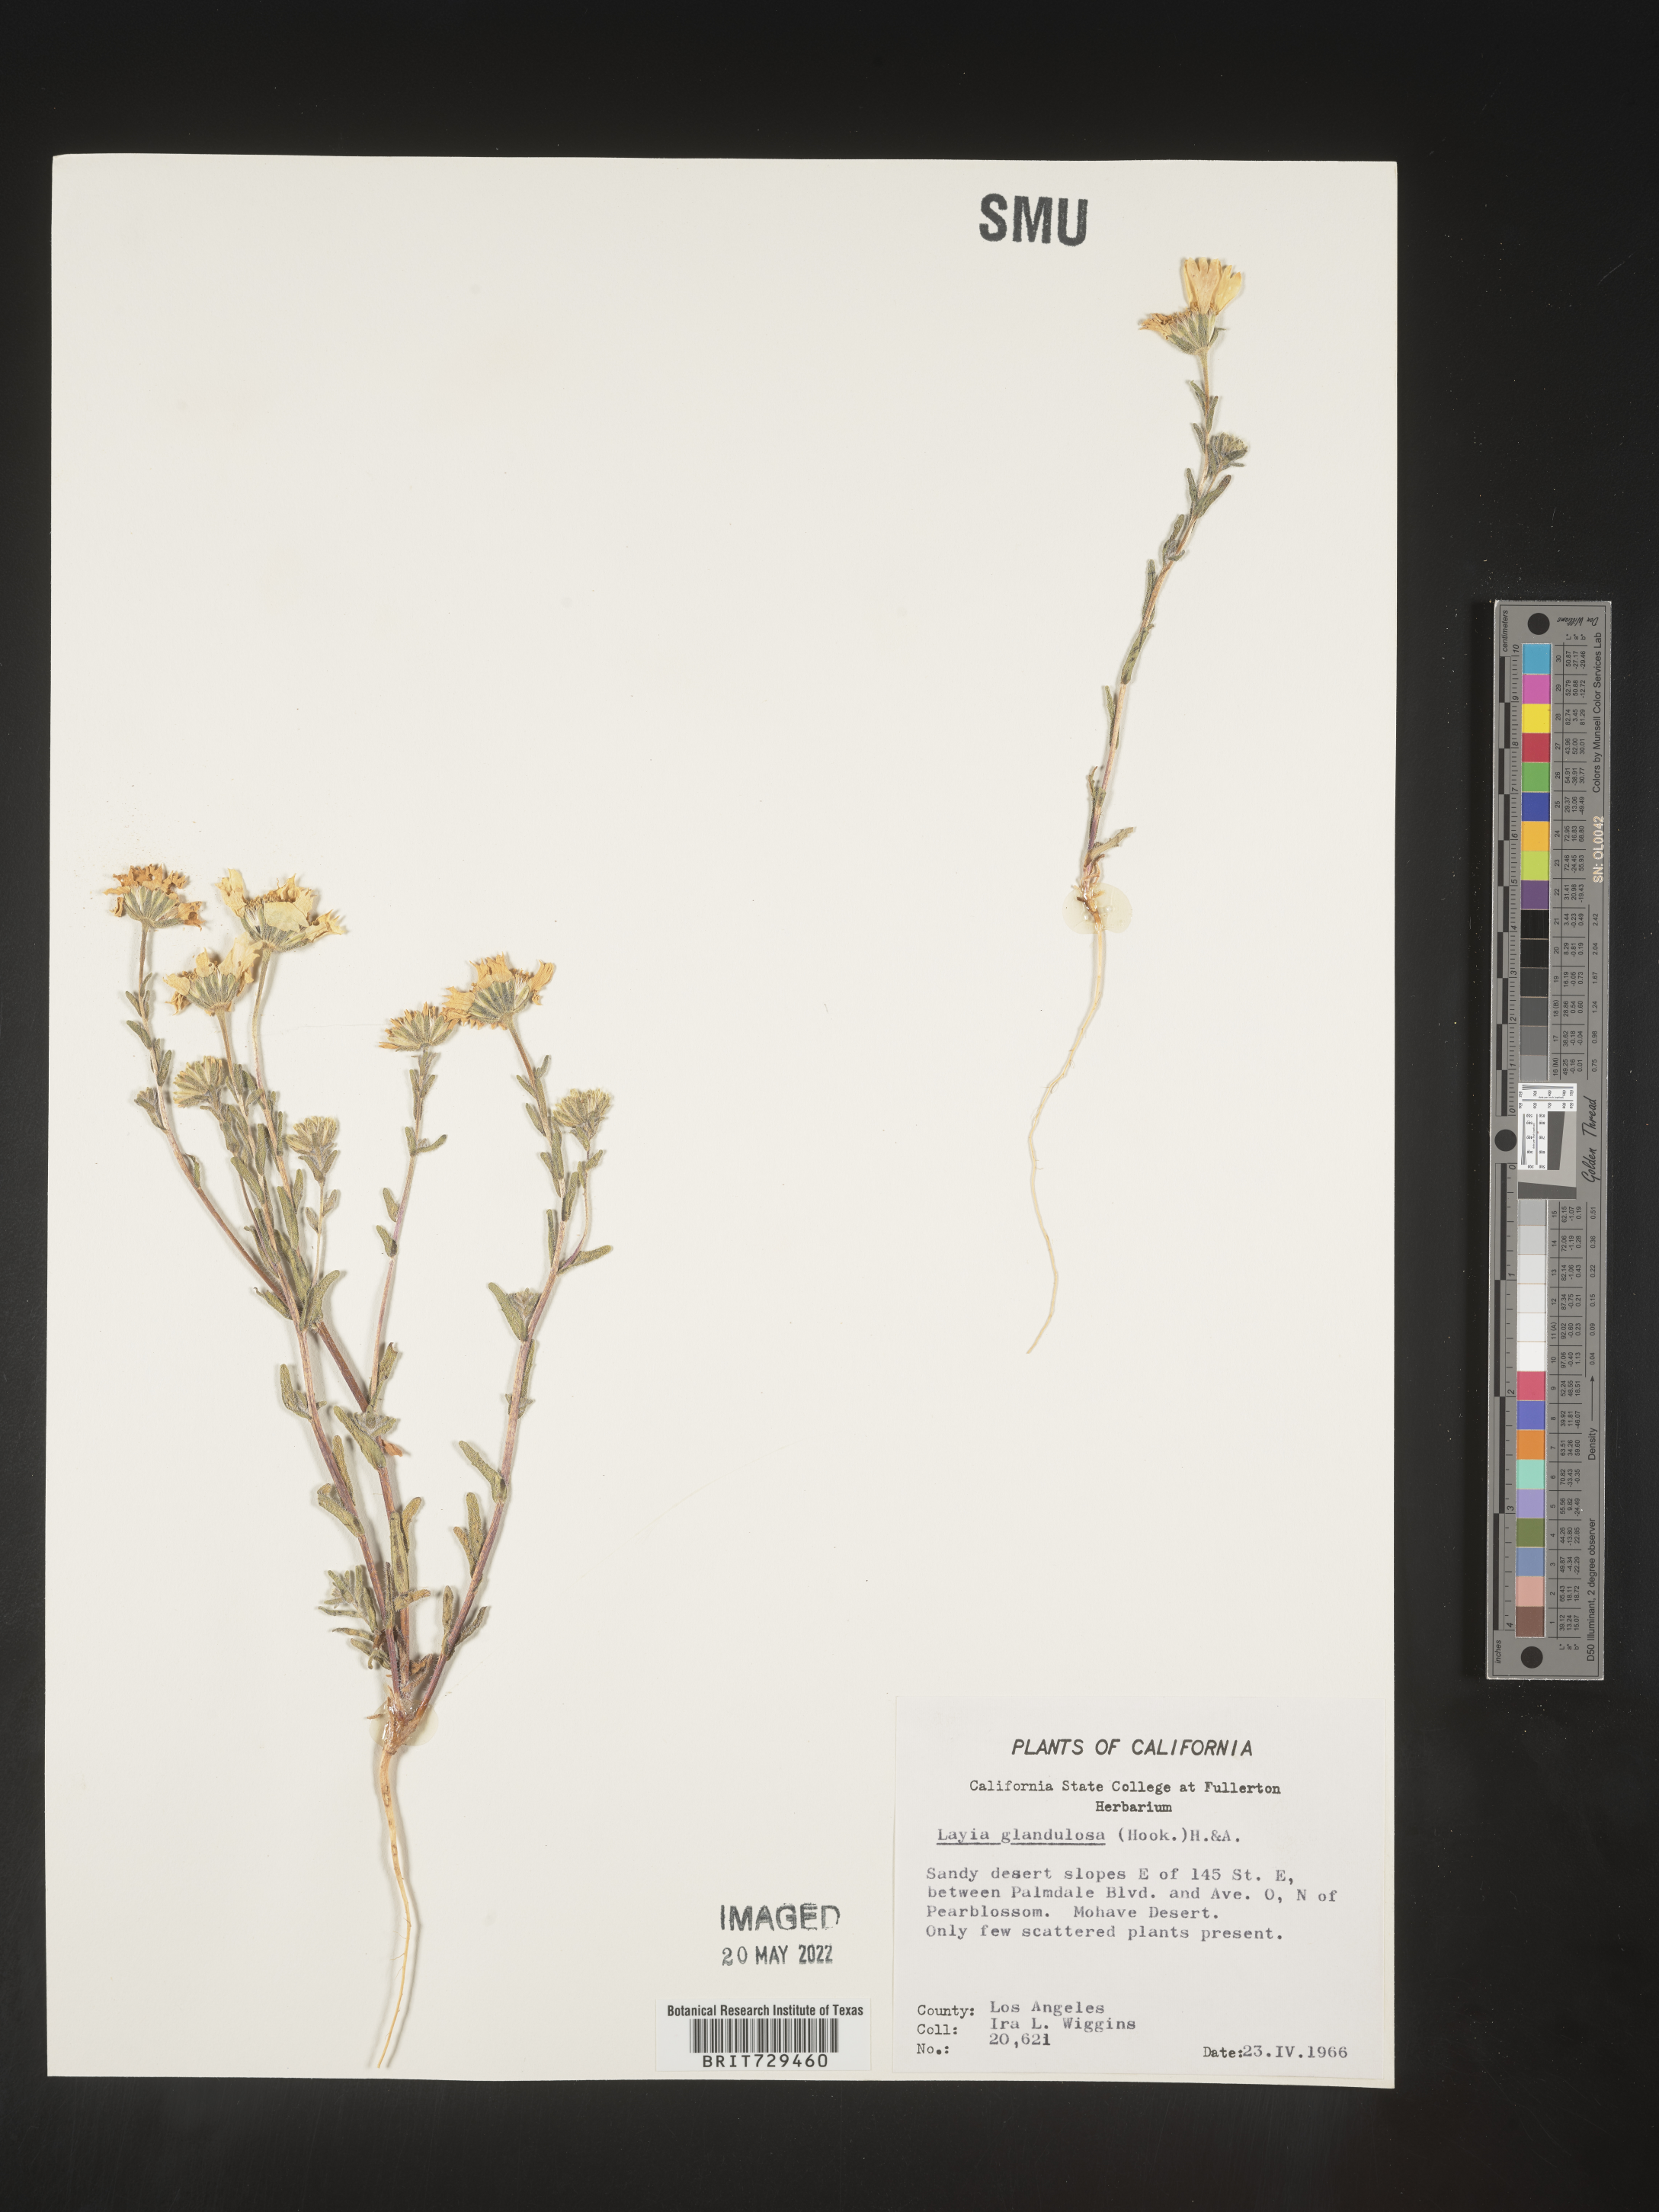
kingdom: Plantae
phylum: Tracheophyta
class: Magnoliopsida
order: Asterales
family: Asteraceae
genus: Layia
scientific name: Layia
